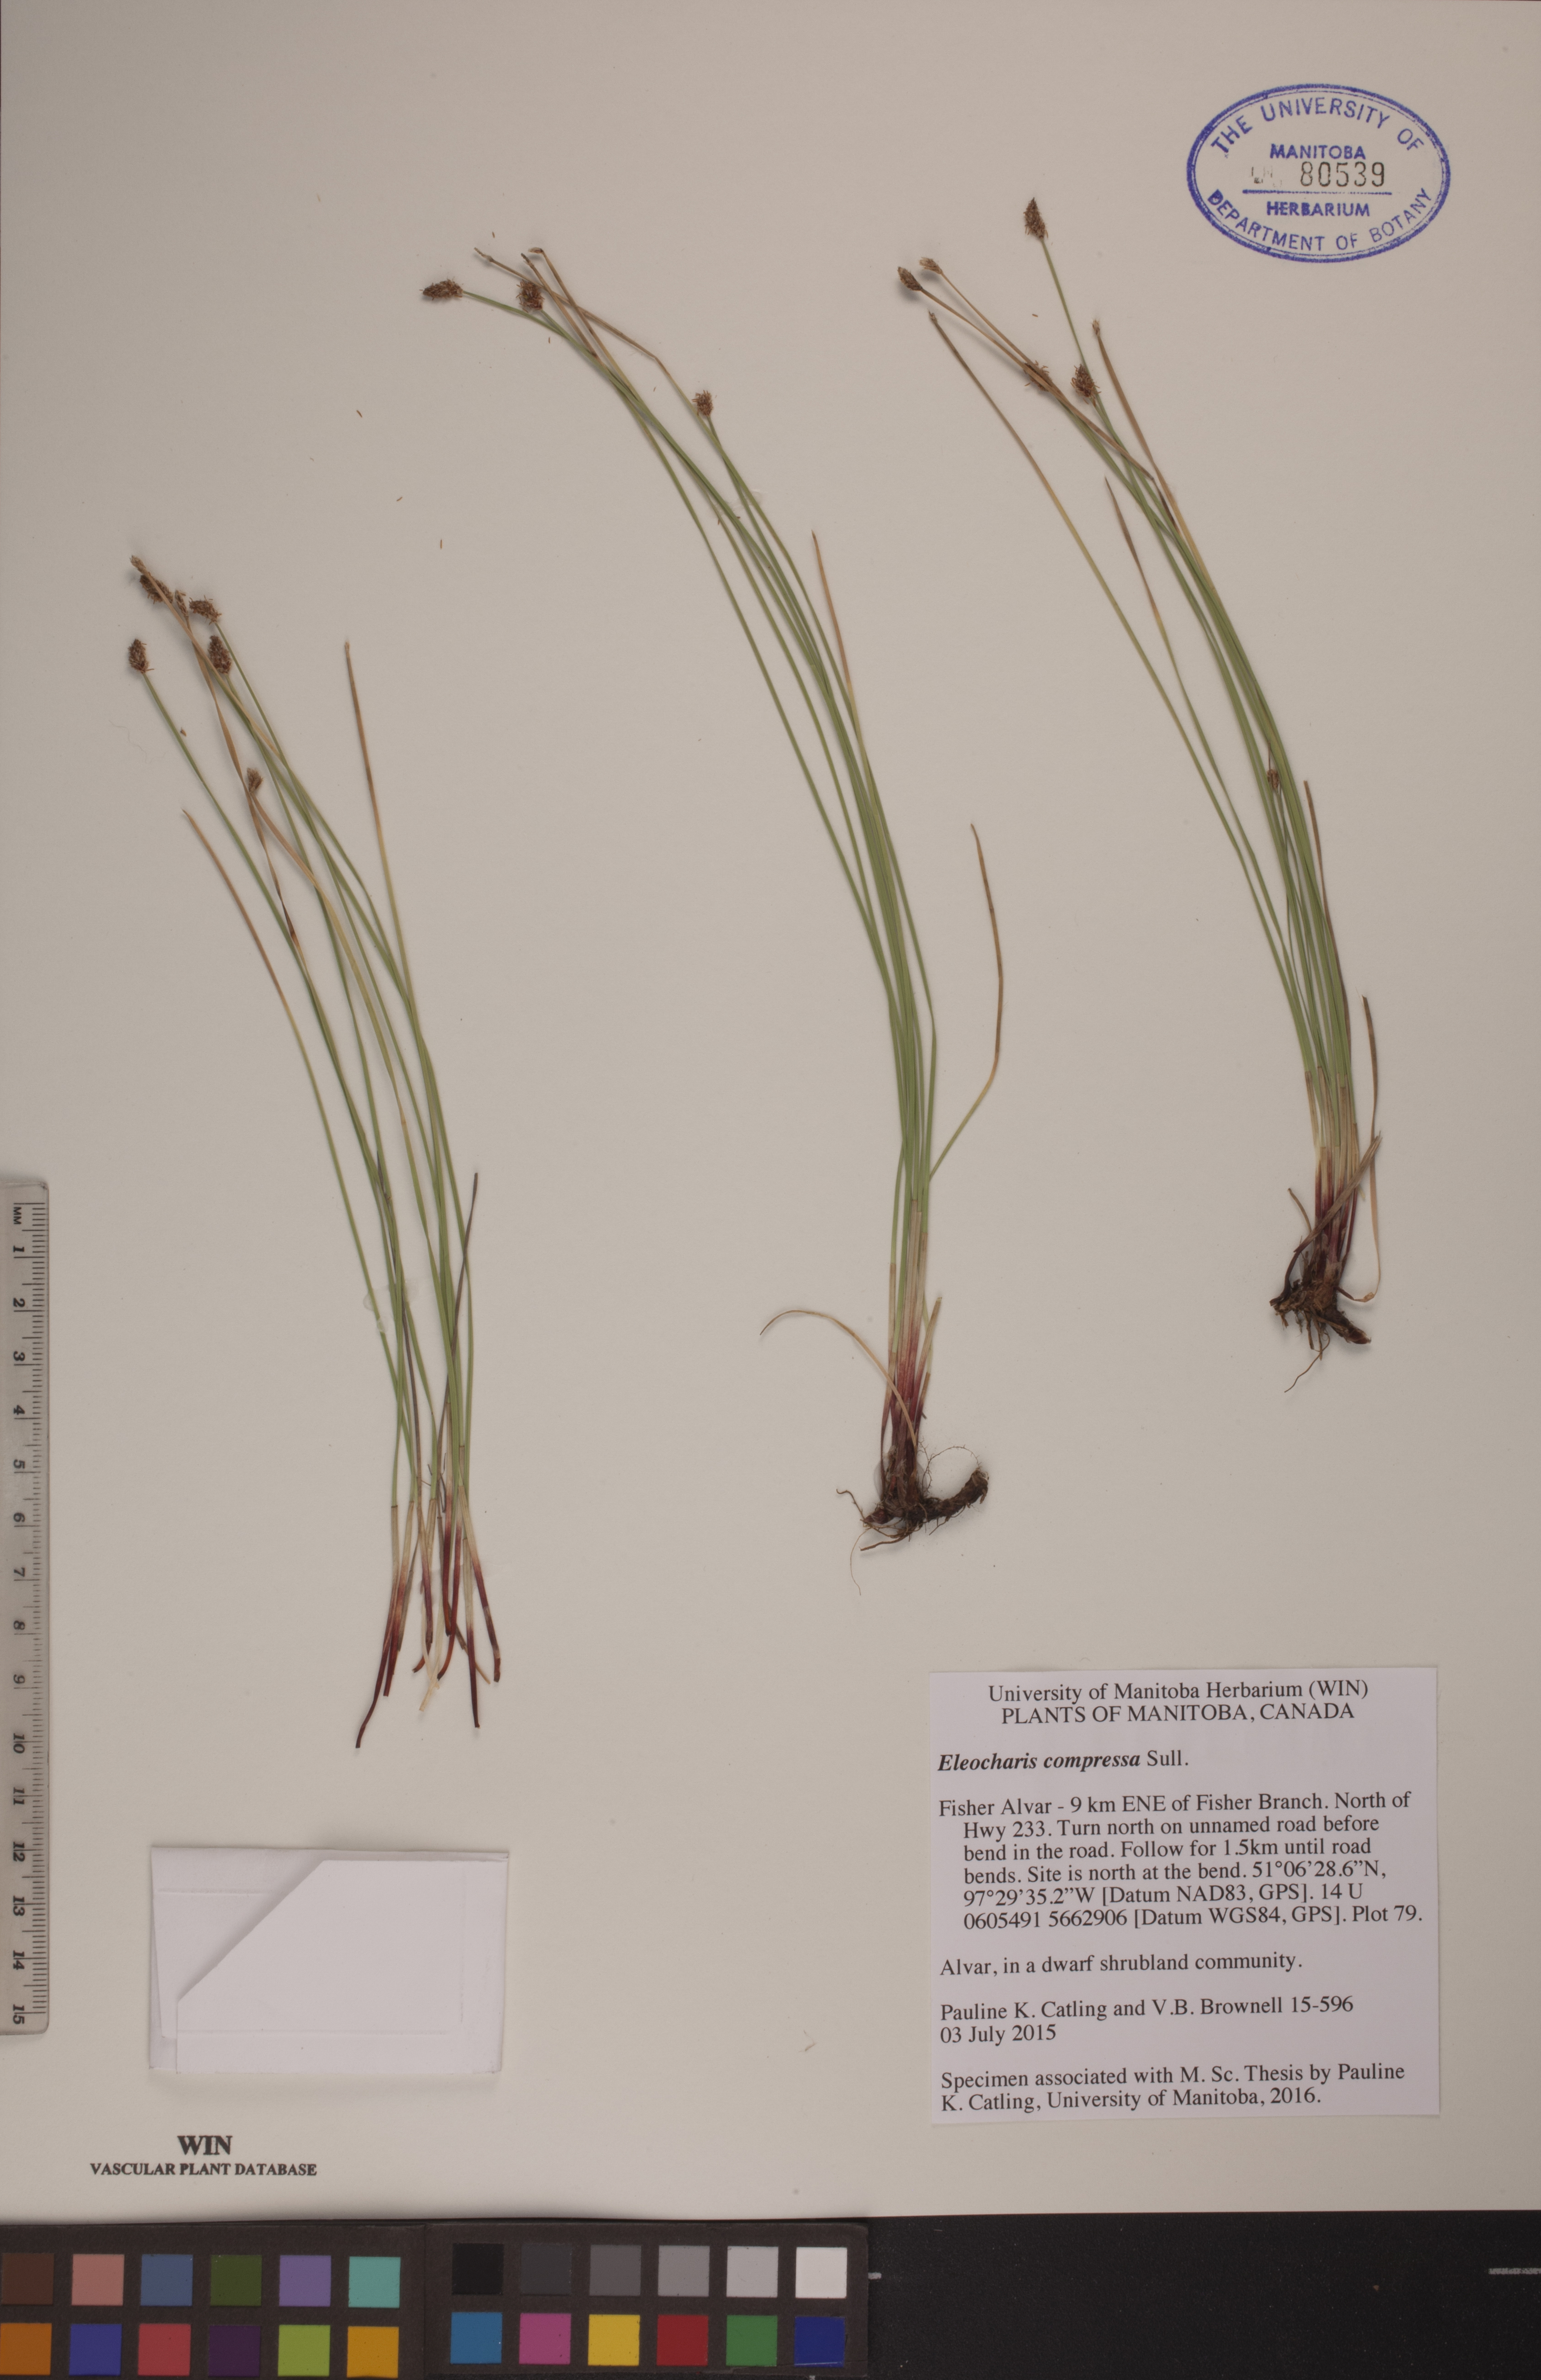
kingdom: Plantae
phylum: Tracheophyta
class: Liliopsida
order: Poales
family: Cyperaceae
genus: Eleocharis
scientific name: Eleocharis compressa
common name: Flat-stem spike-rush
